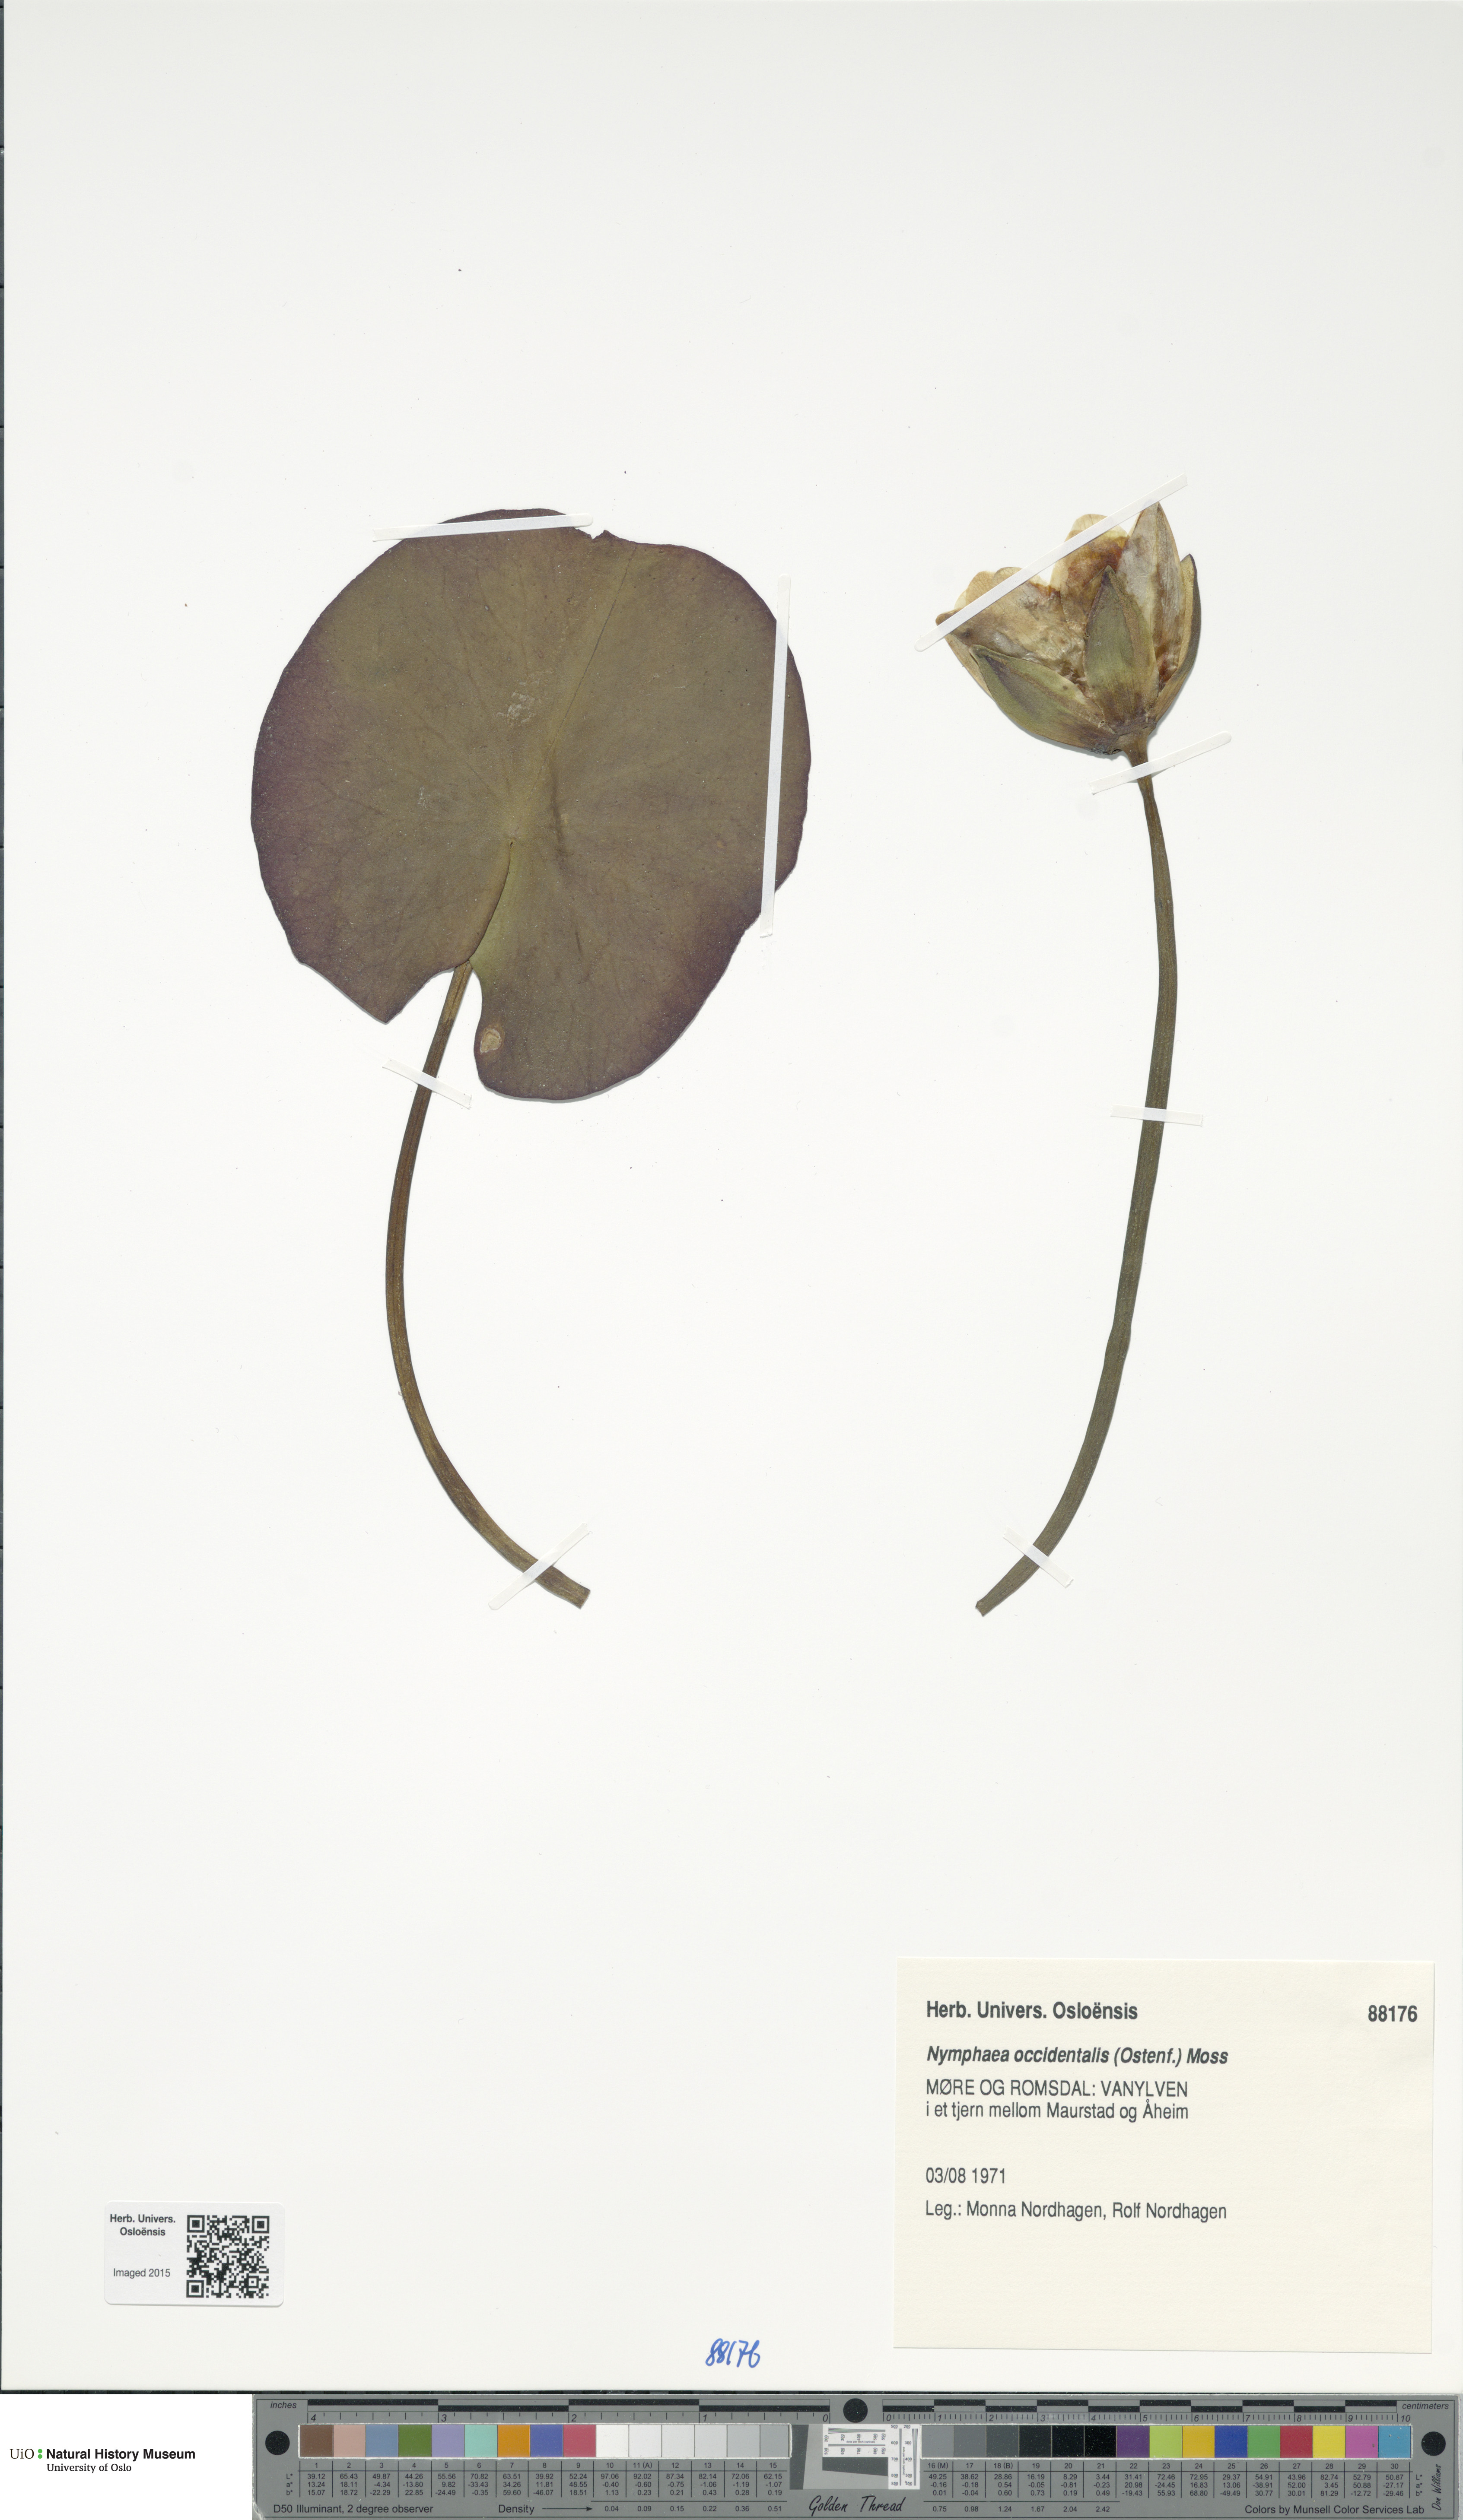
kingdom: Plantae
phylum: Tracheophyta
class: Magnoliopsida
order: Nymphaeales
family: Nymphaeaceae
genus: Nymphaea
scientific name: Nymphaea alba
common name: White water-lily
